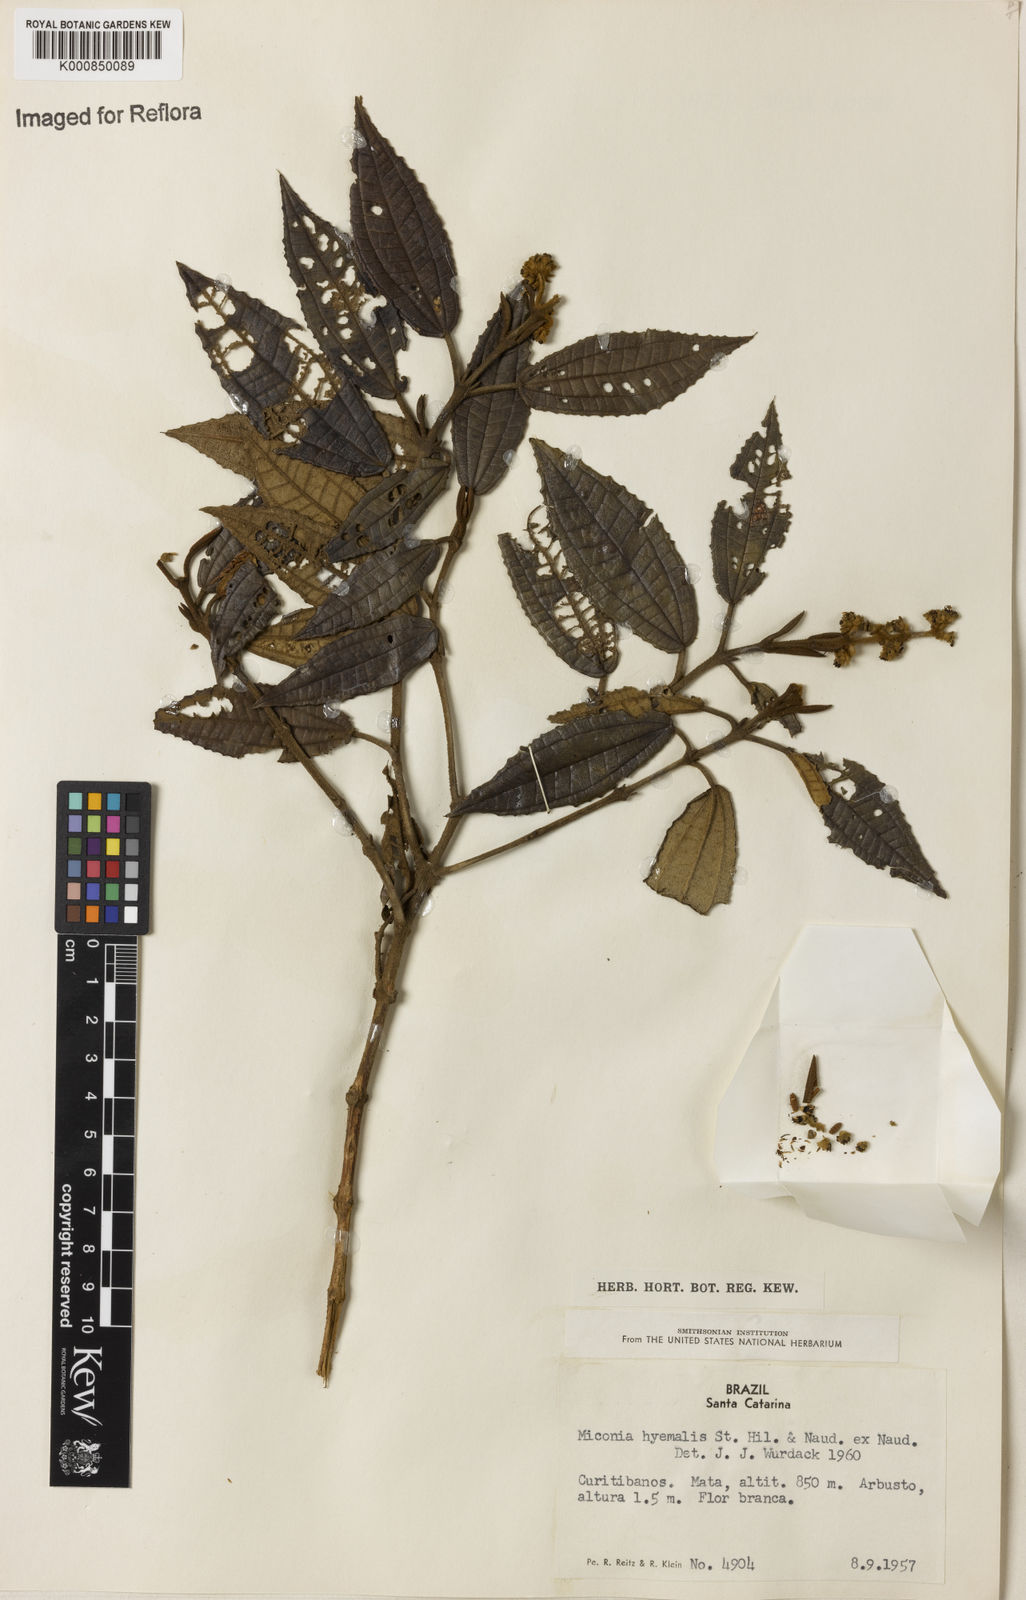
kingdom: Plantae
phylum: Tracheophyta
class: Magnoliopsida
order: Myrtales
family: Melastomataceae
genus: Miconia
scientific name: Miconia hyemalis
